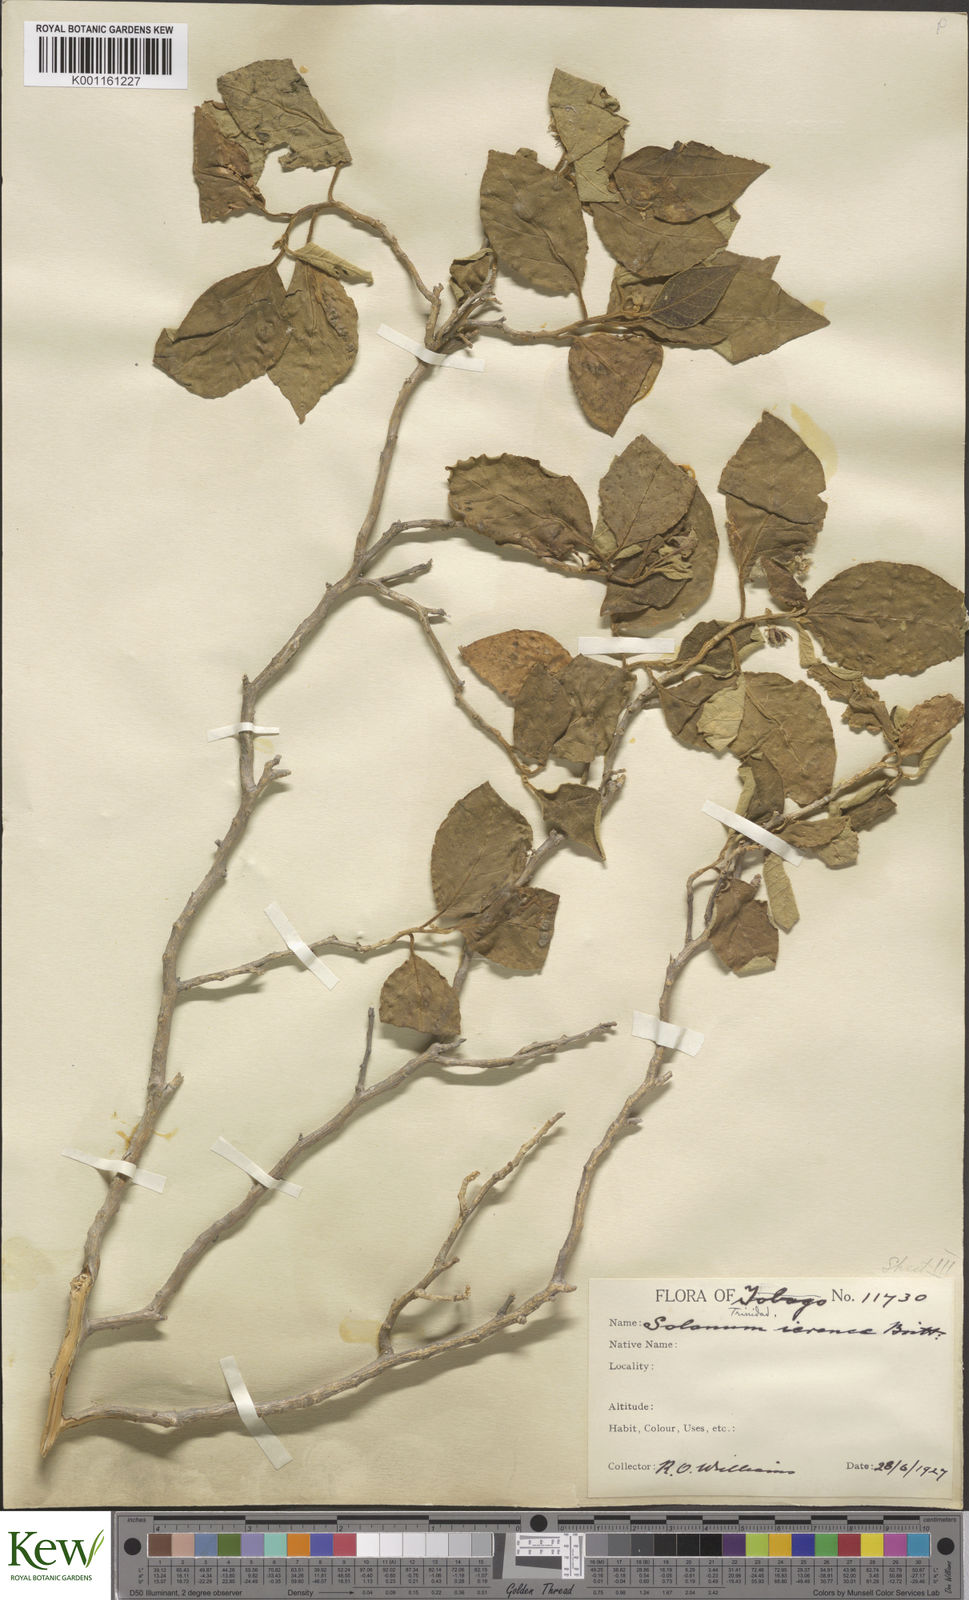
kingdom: Plantae
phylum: Tracheophyta
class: Magnoliopsida
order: Solanales
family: Solanaceae
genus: Solanum
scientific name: Solanum gardneri
